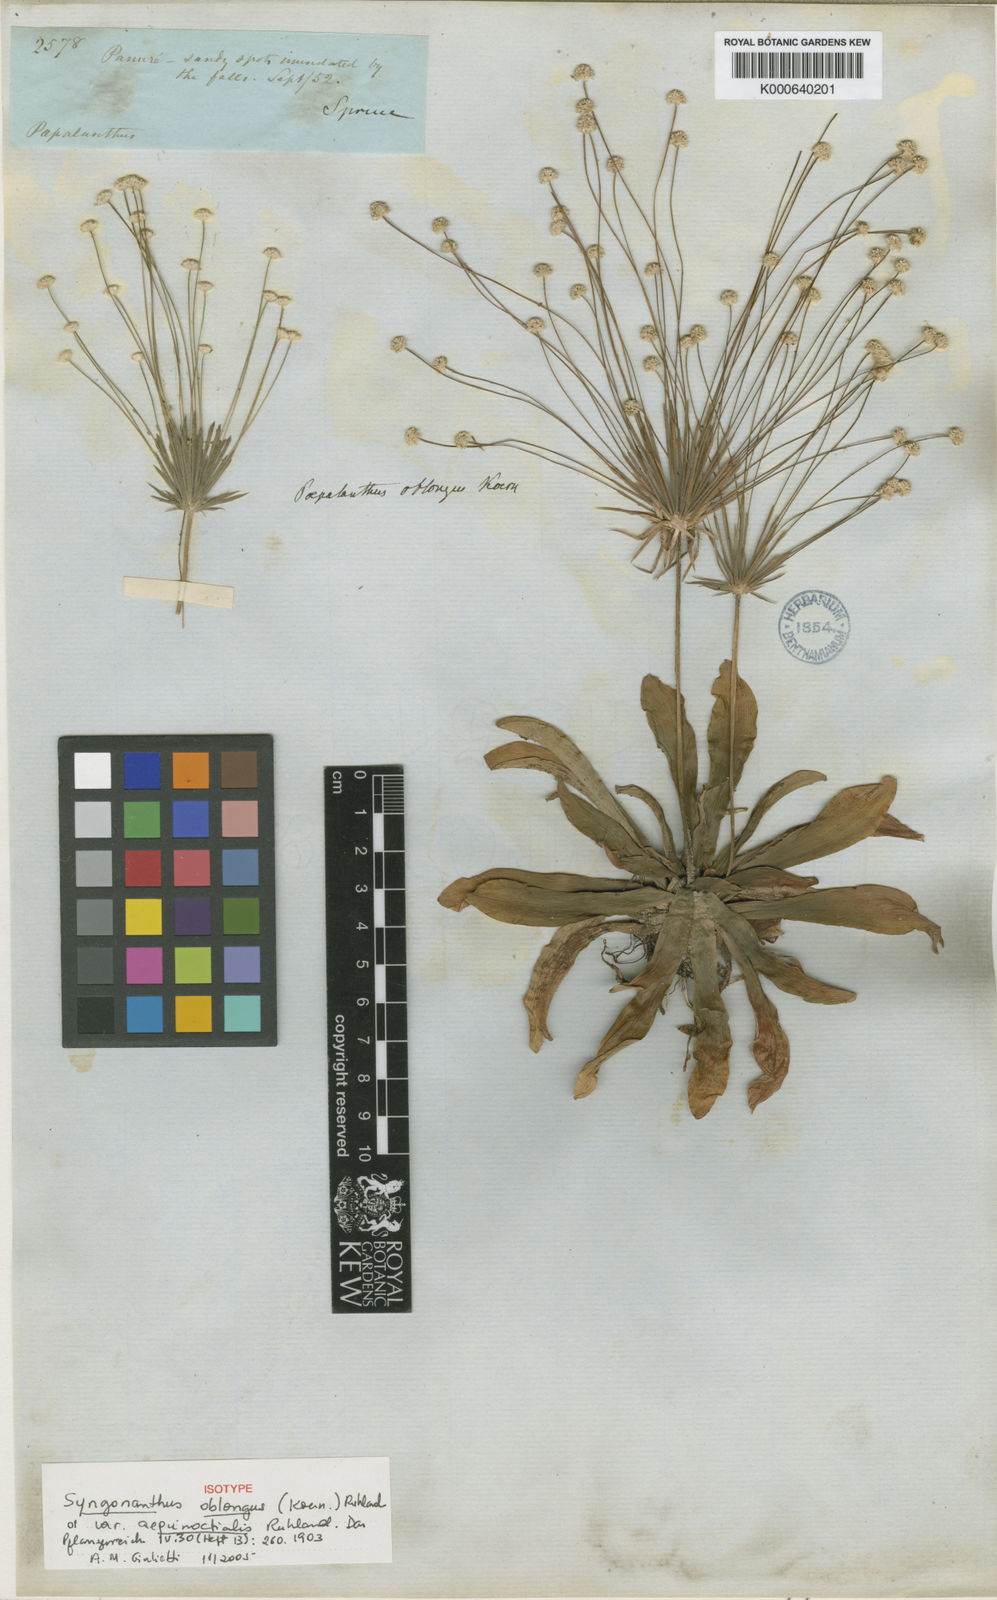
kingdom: Plantae
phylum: Tracheophyta
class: Liliopsida
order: Poales
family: Eriocaulaceae
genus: Syngonanthus
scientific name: Syngonanthus
